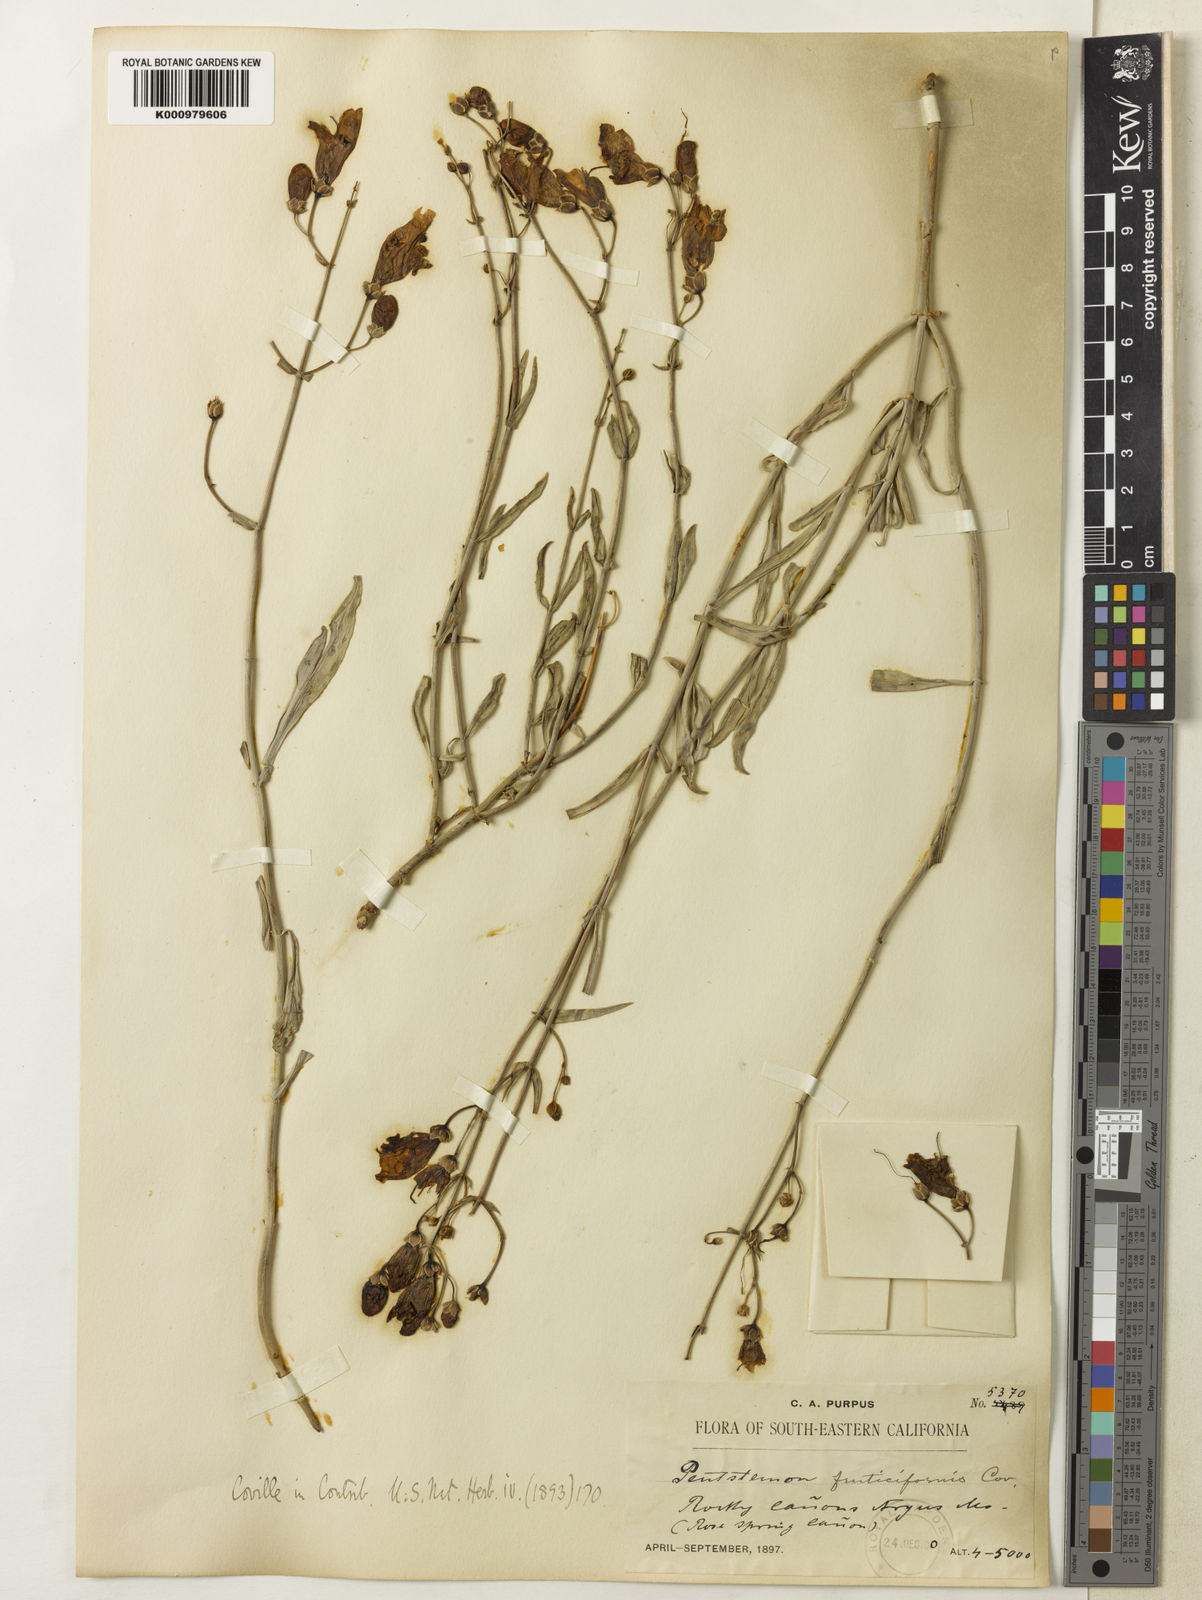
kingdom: Plantae
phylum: Tracheophyta
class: Magnoliopsida
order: Lamiales
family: Plantaginaceae
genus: Penstemon
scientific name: Penstemon fruticiformis
